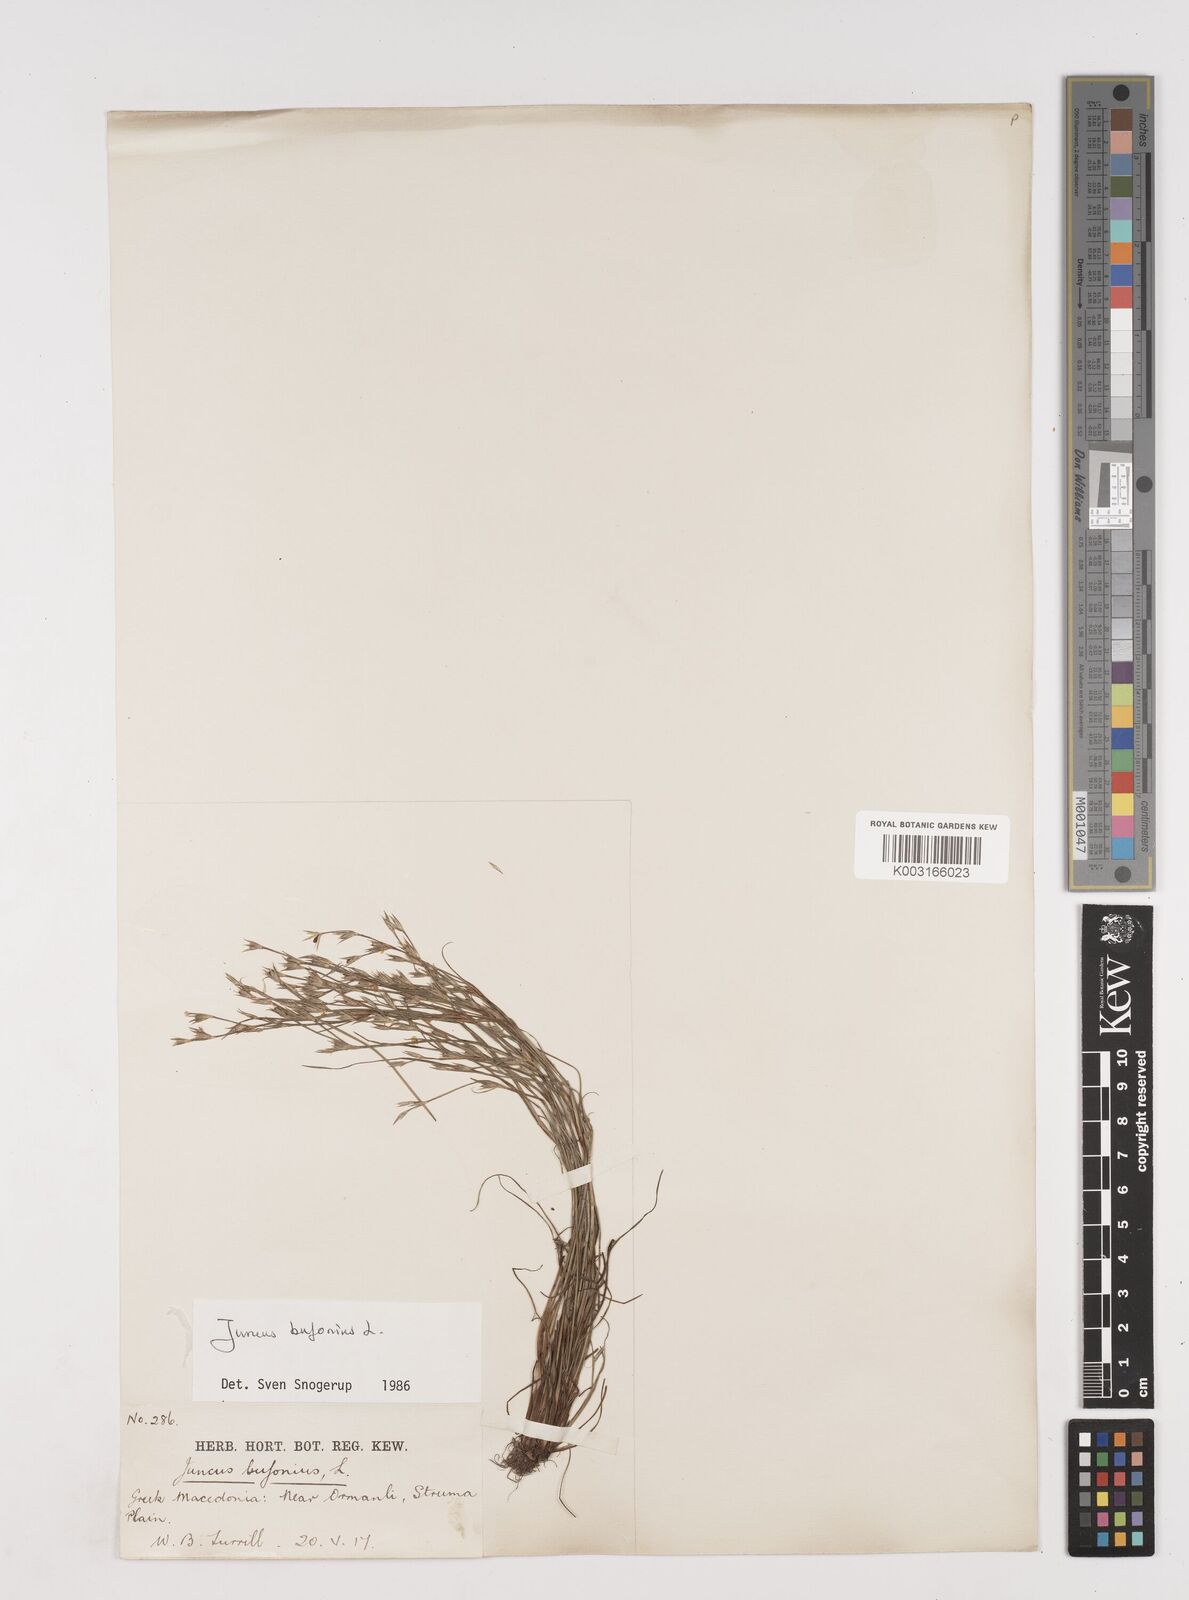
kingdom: Plantae
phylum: Tracheophyta
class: Liliopsida
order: Poales
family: Juncaceae
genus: Juncus
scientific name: Juncus bufonius
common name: Toad rush
